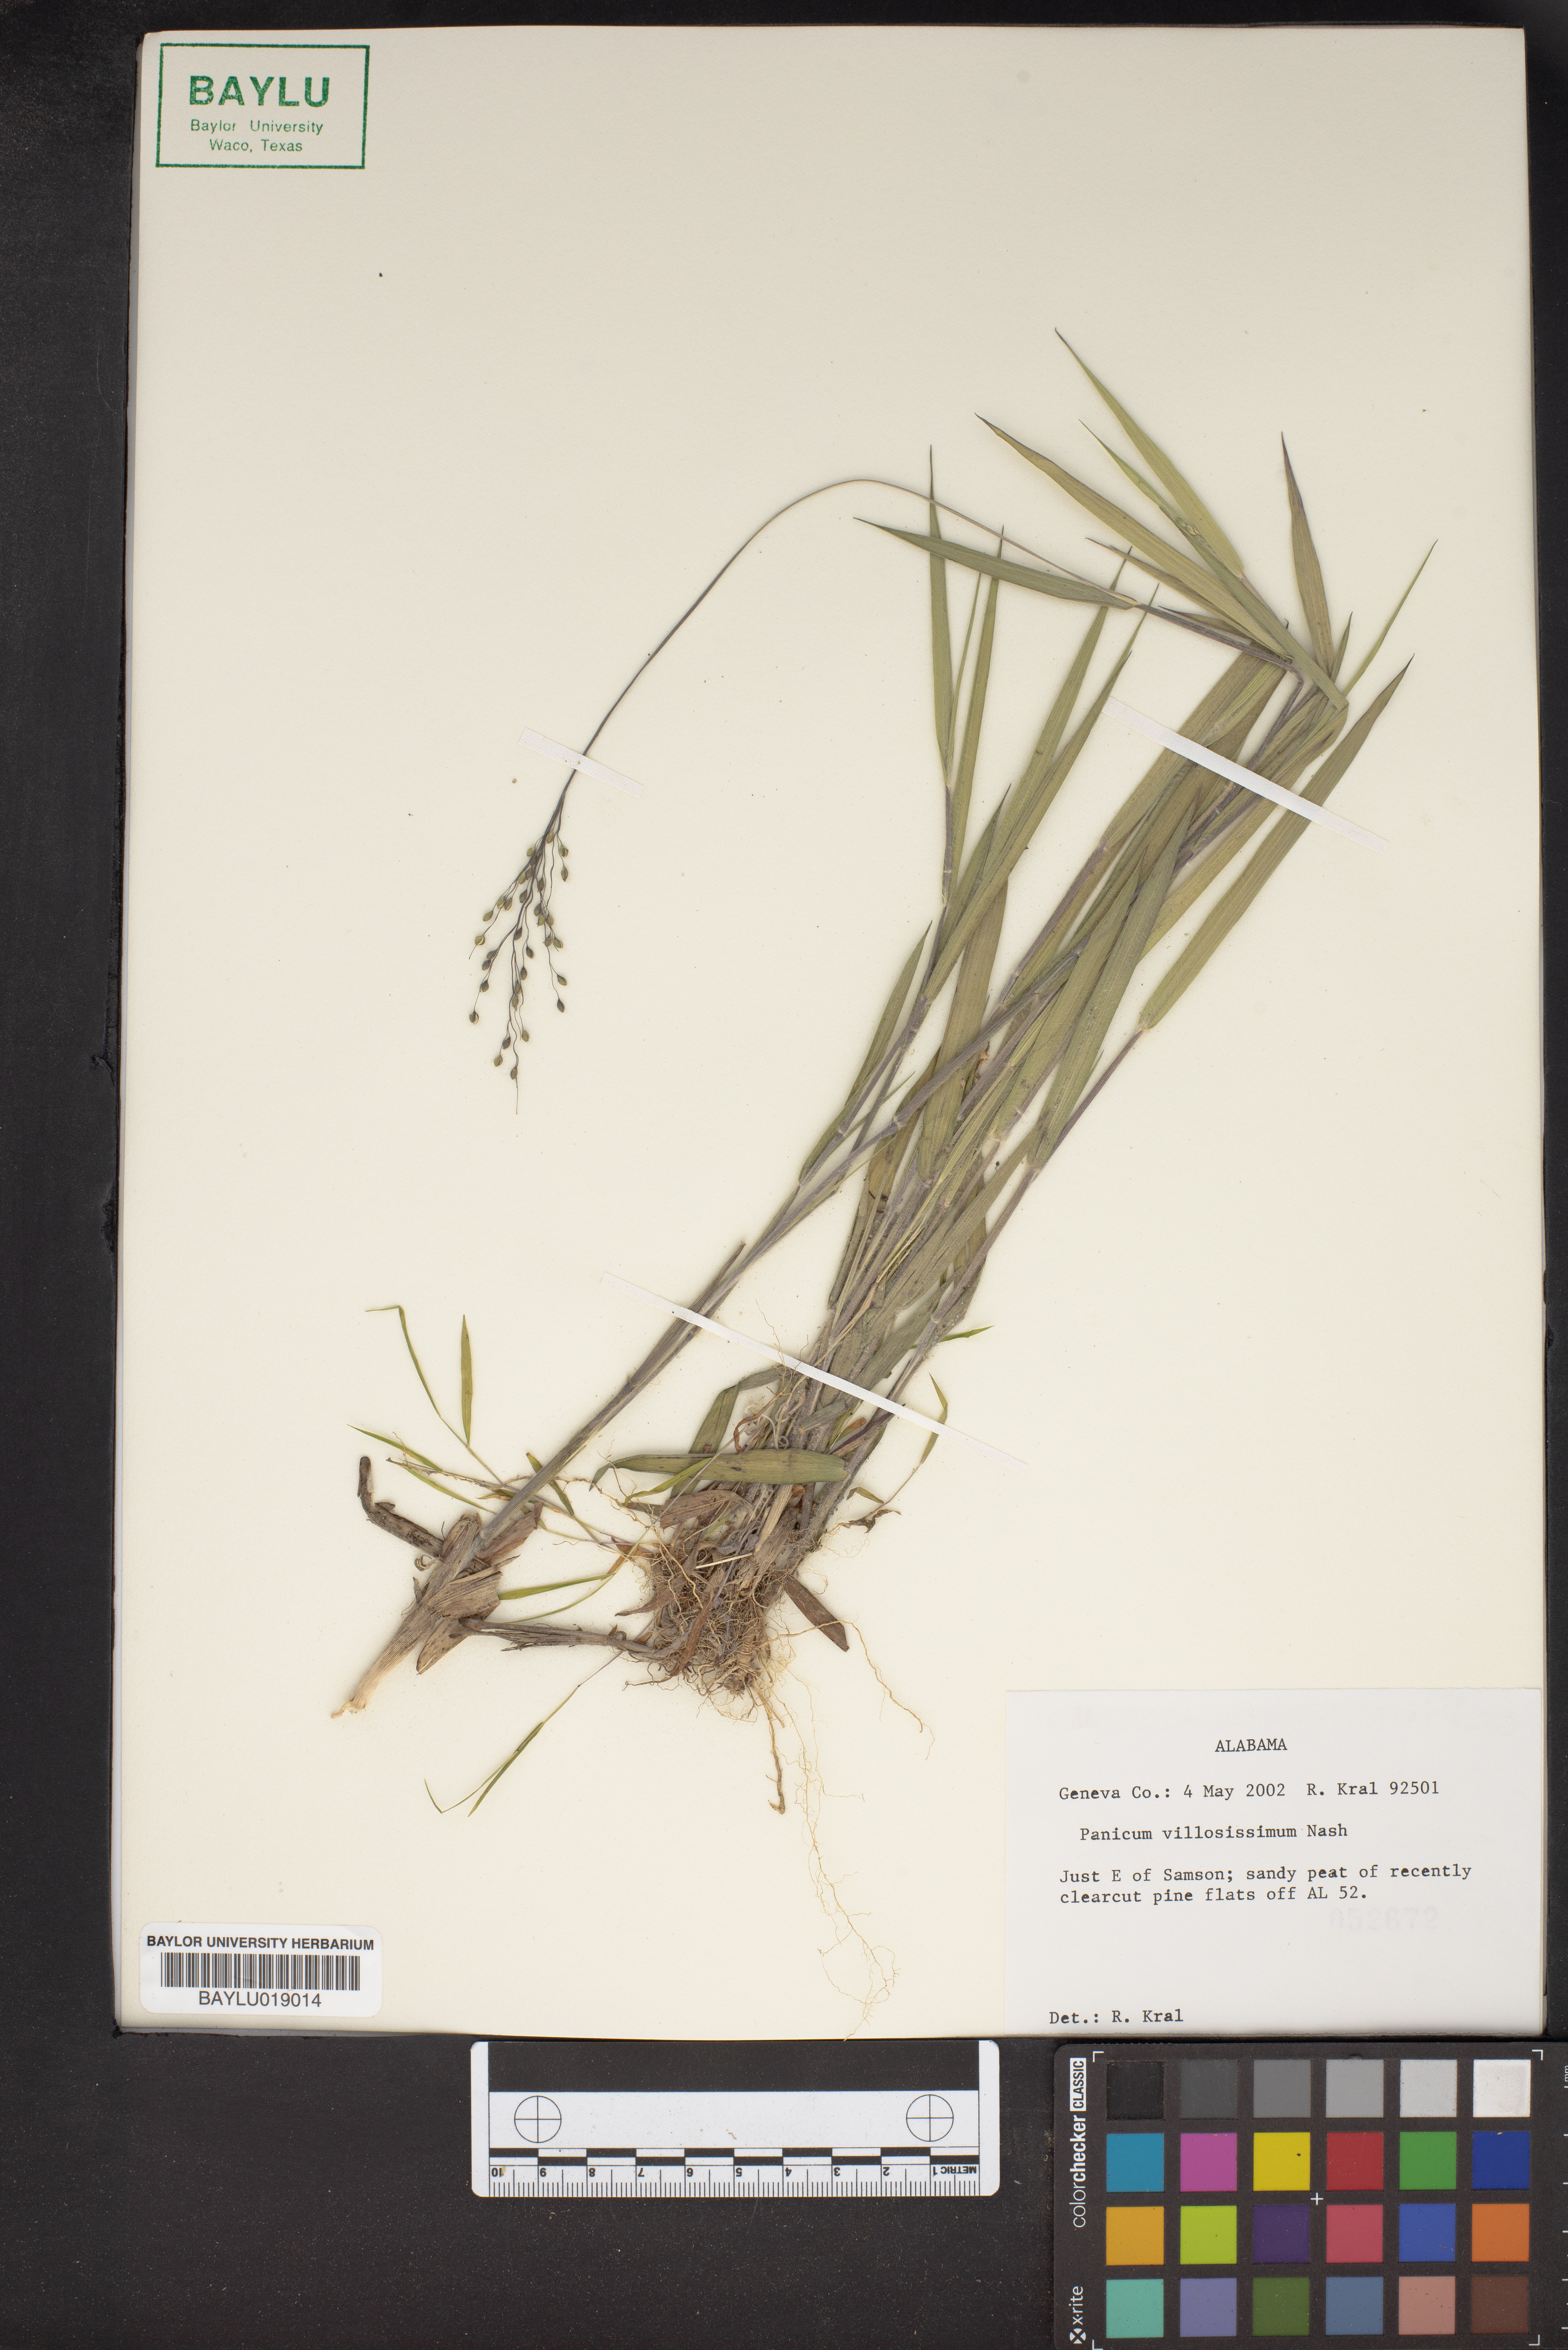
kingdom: Plantae
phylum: Tracheophyta
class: Liliopsida
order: Poales
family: Poaceae
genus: Dichanthelium
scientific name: Dichanthelium villosissimum
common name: White-haired panicgrass
